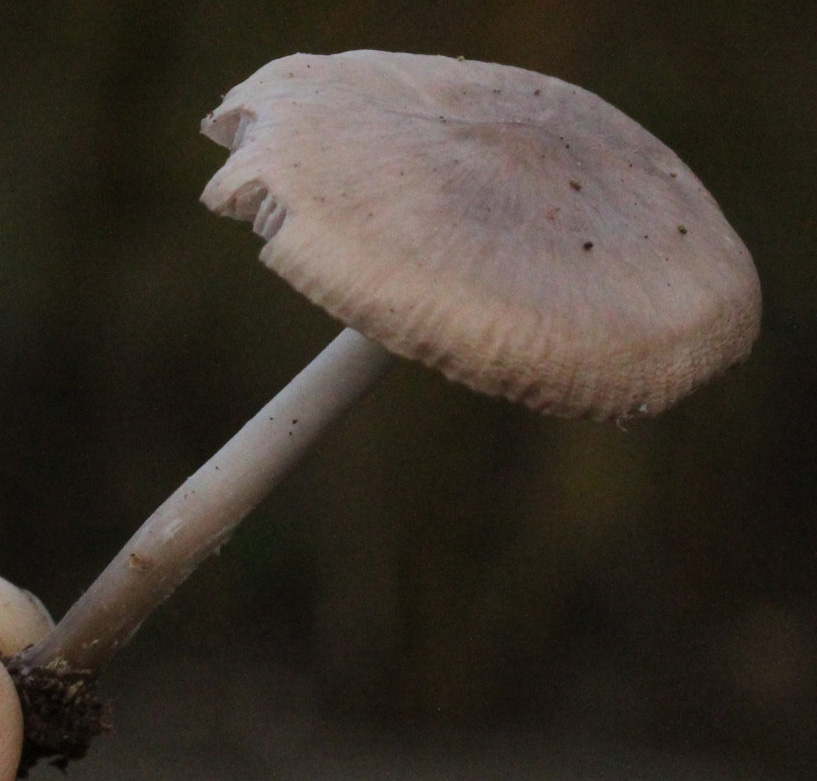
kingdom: Fungi
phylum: Basidiomycota
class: Agaricomycetes
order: Agaricales
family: Mycenaceae
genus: Mycena
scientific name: Mycena galericulata
